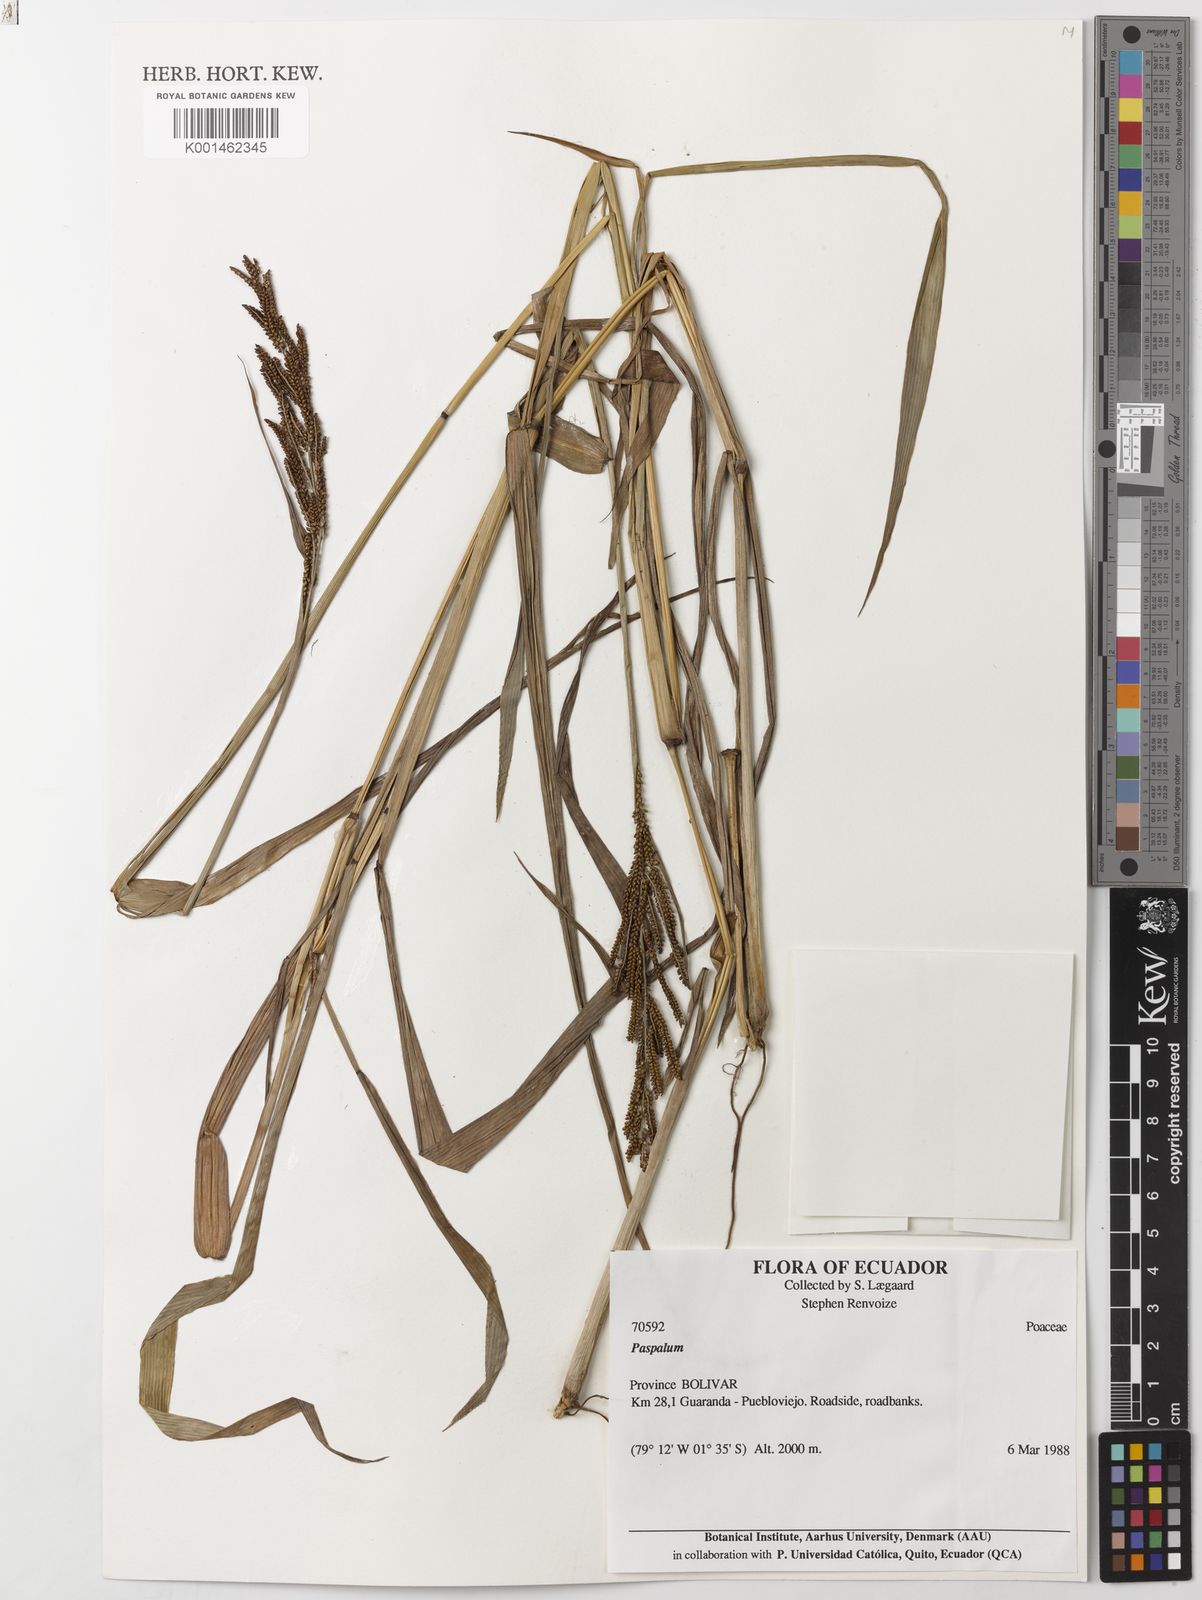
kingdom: Plantae
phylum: Tracheophyta
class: Liliopsida
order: Poales
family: Poaceae
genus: Paspalum
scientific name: Paspalum
